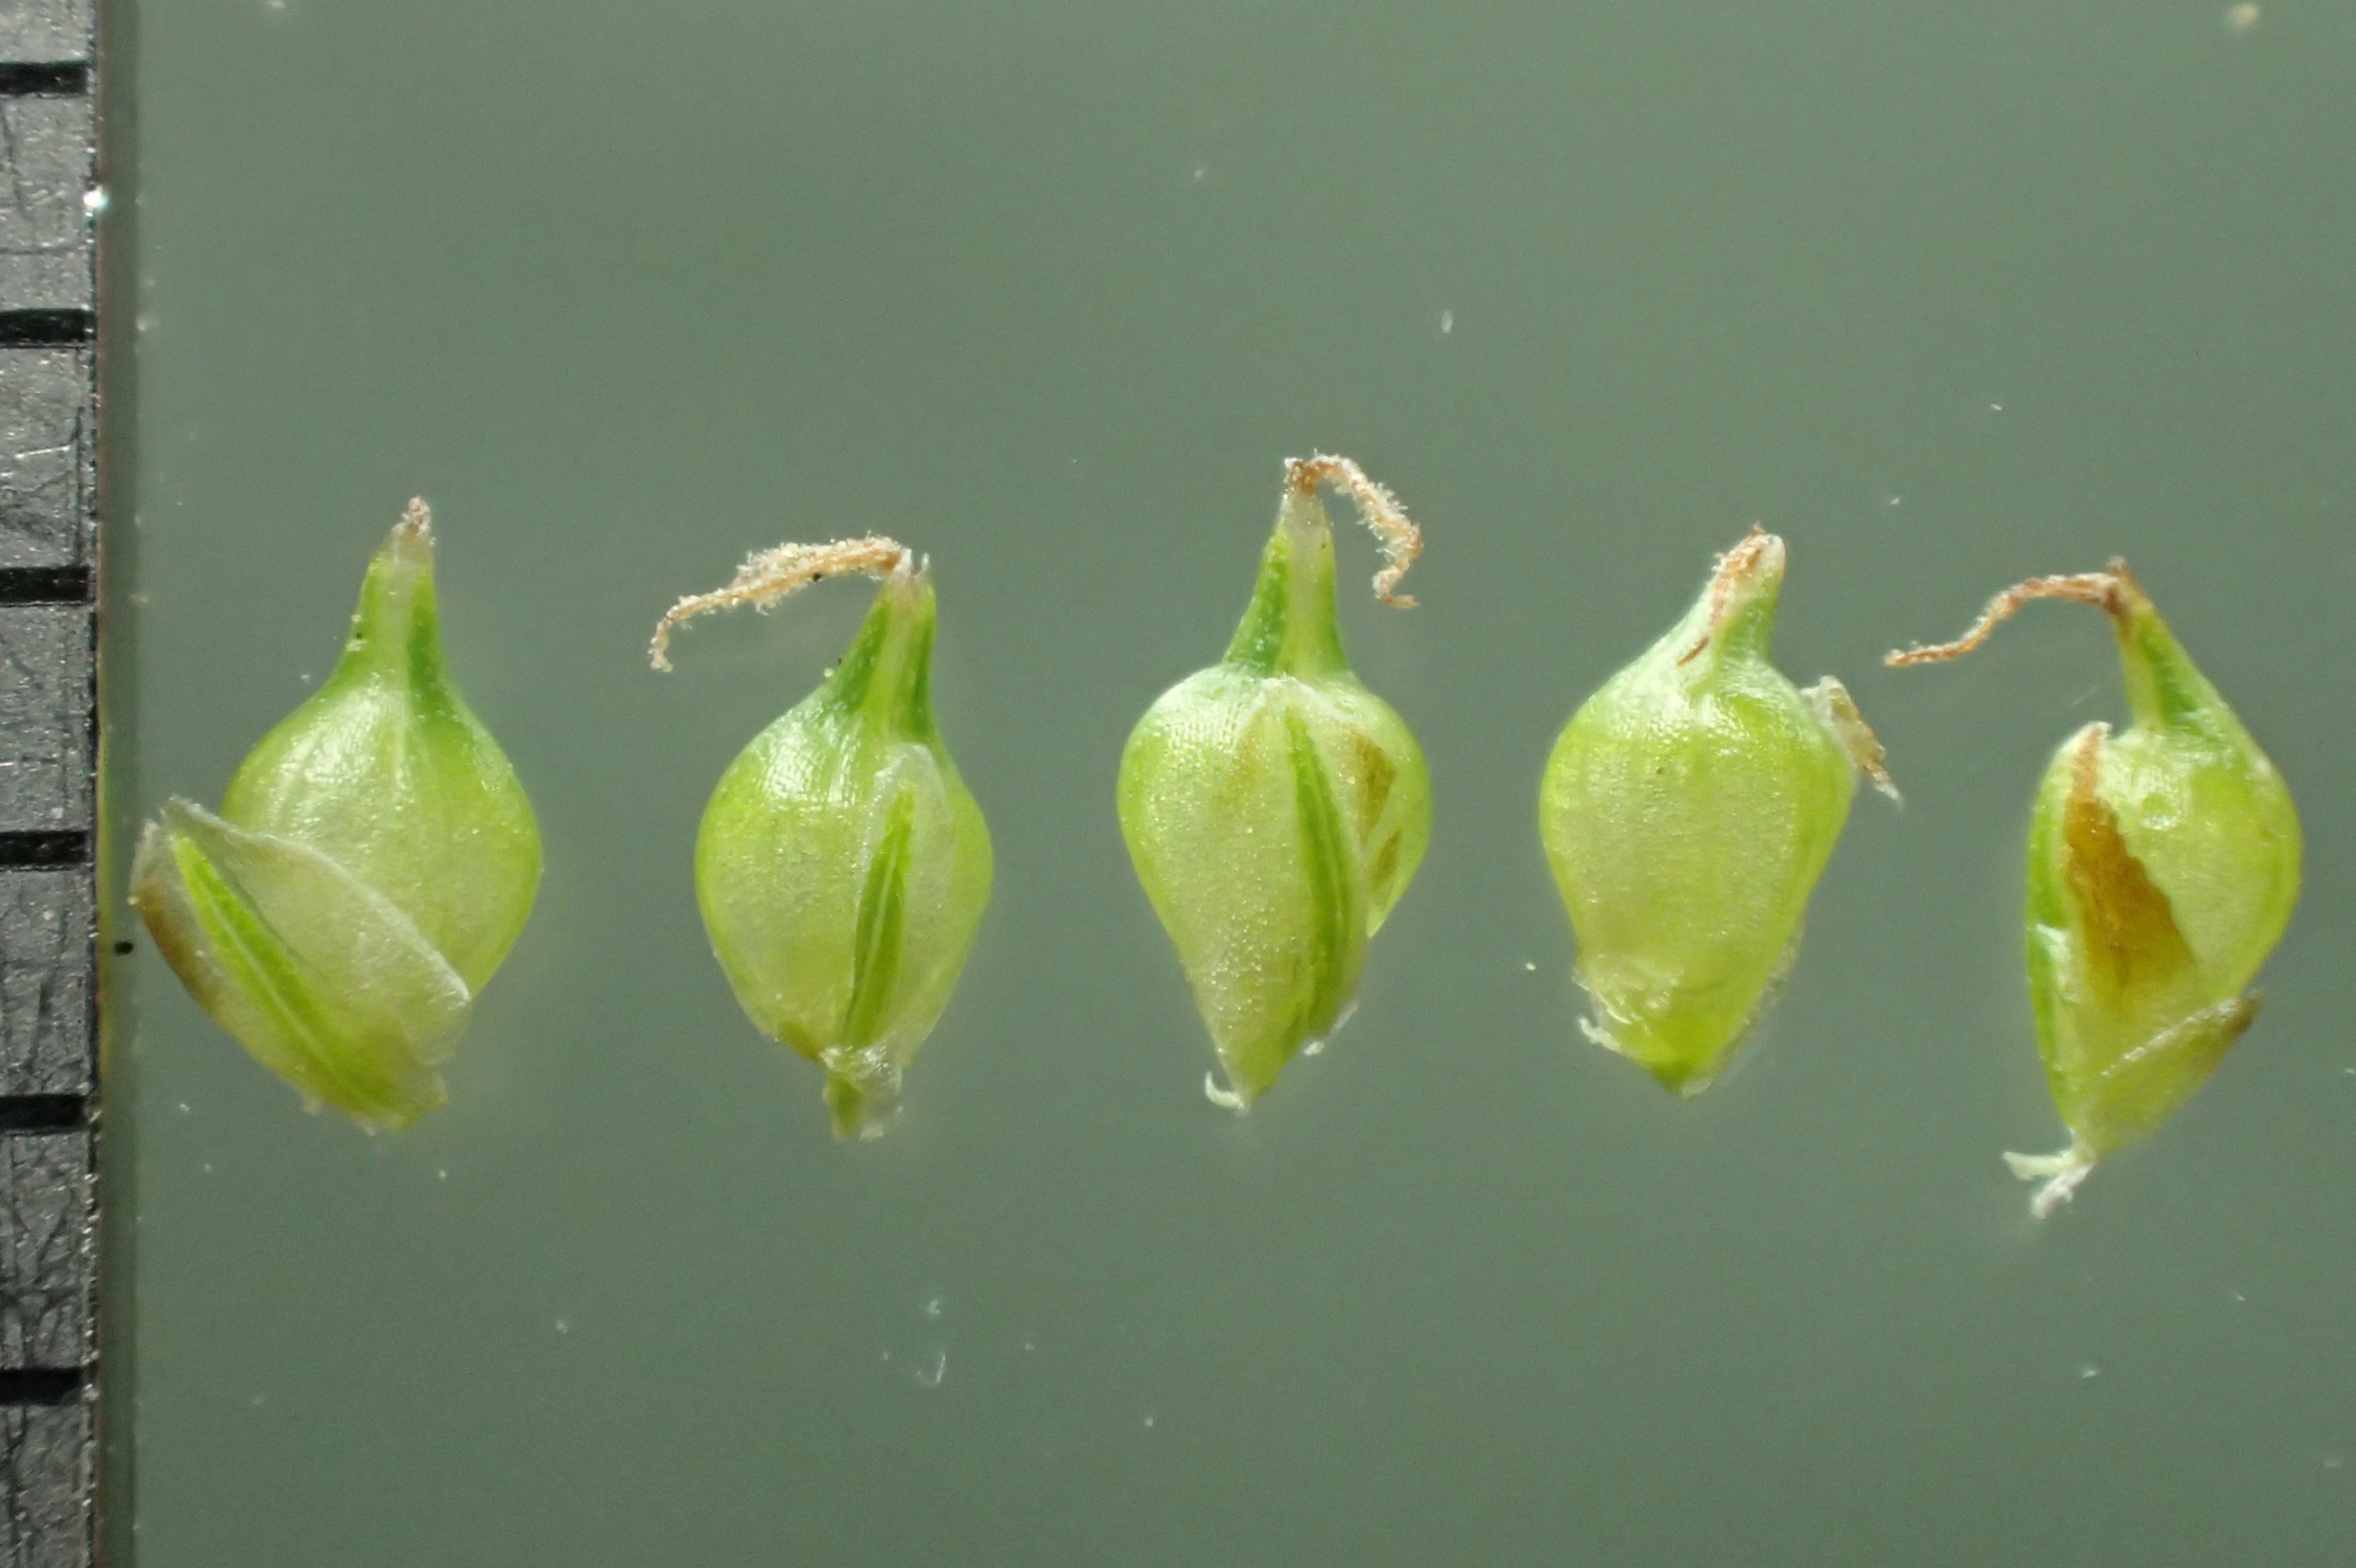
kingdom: Plantae
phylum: Tracheophyta
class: Liliopsida
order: Poales
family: Cyperaceae
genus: Carex
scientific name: Carex oederi
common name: Dværg-star
